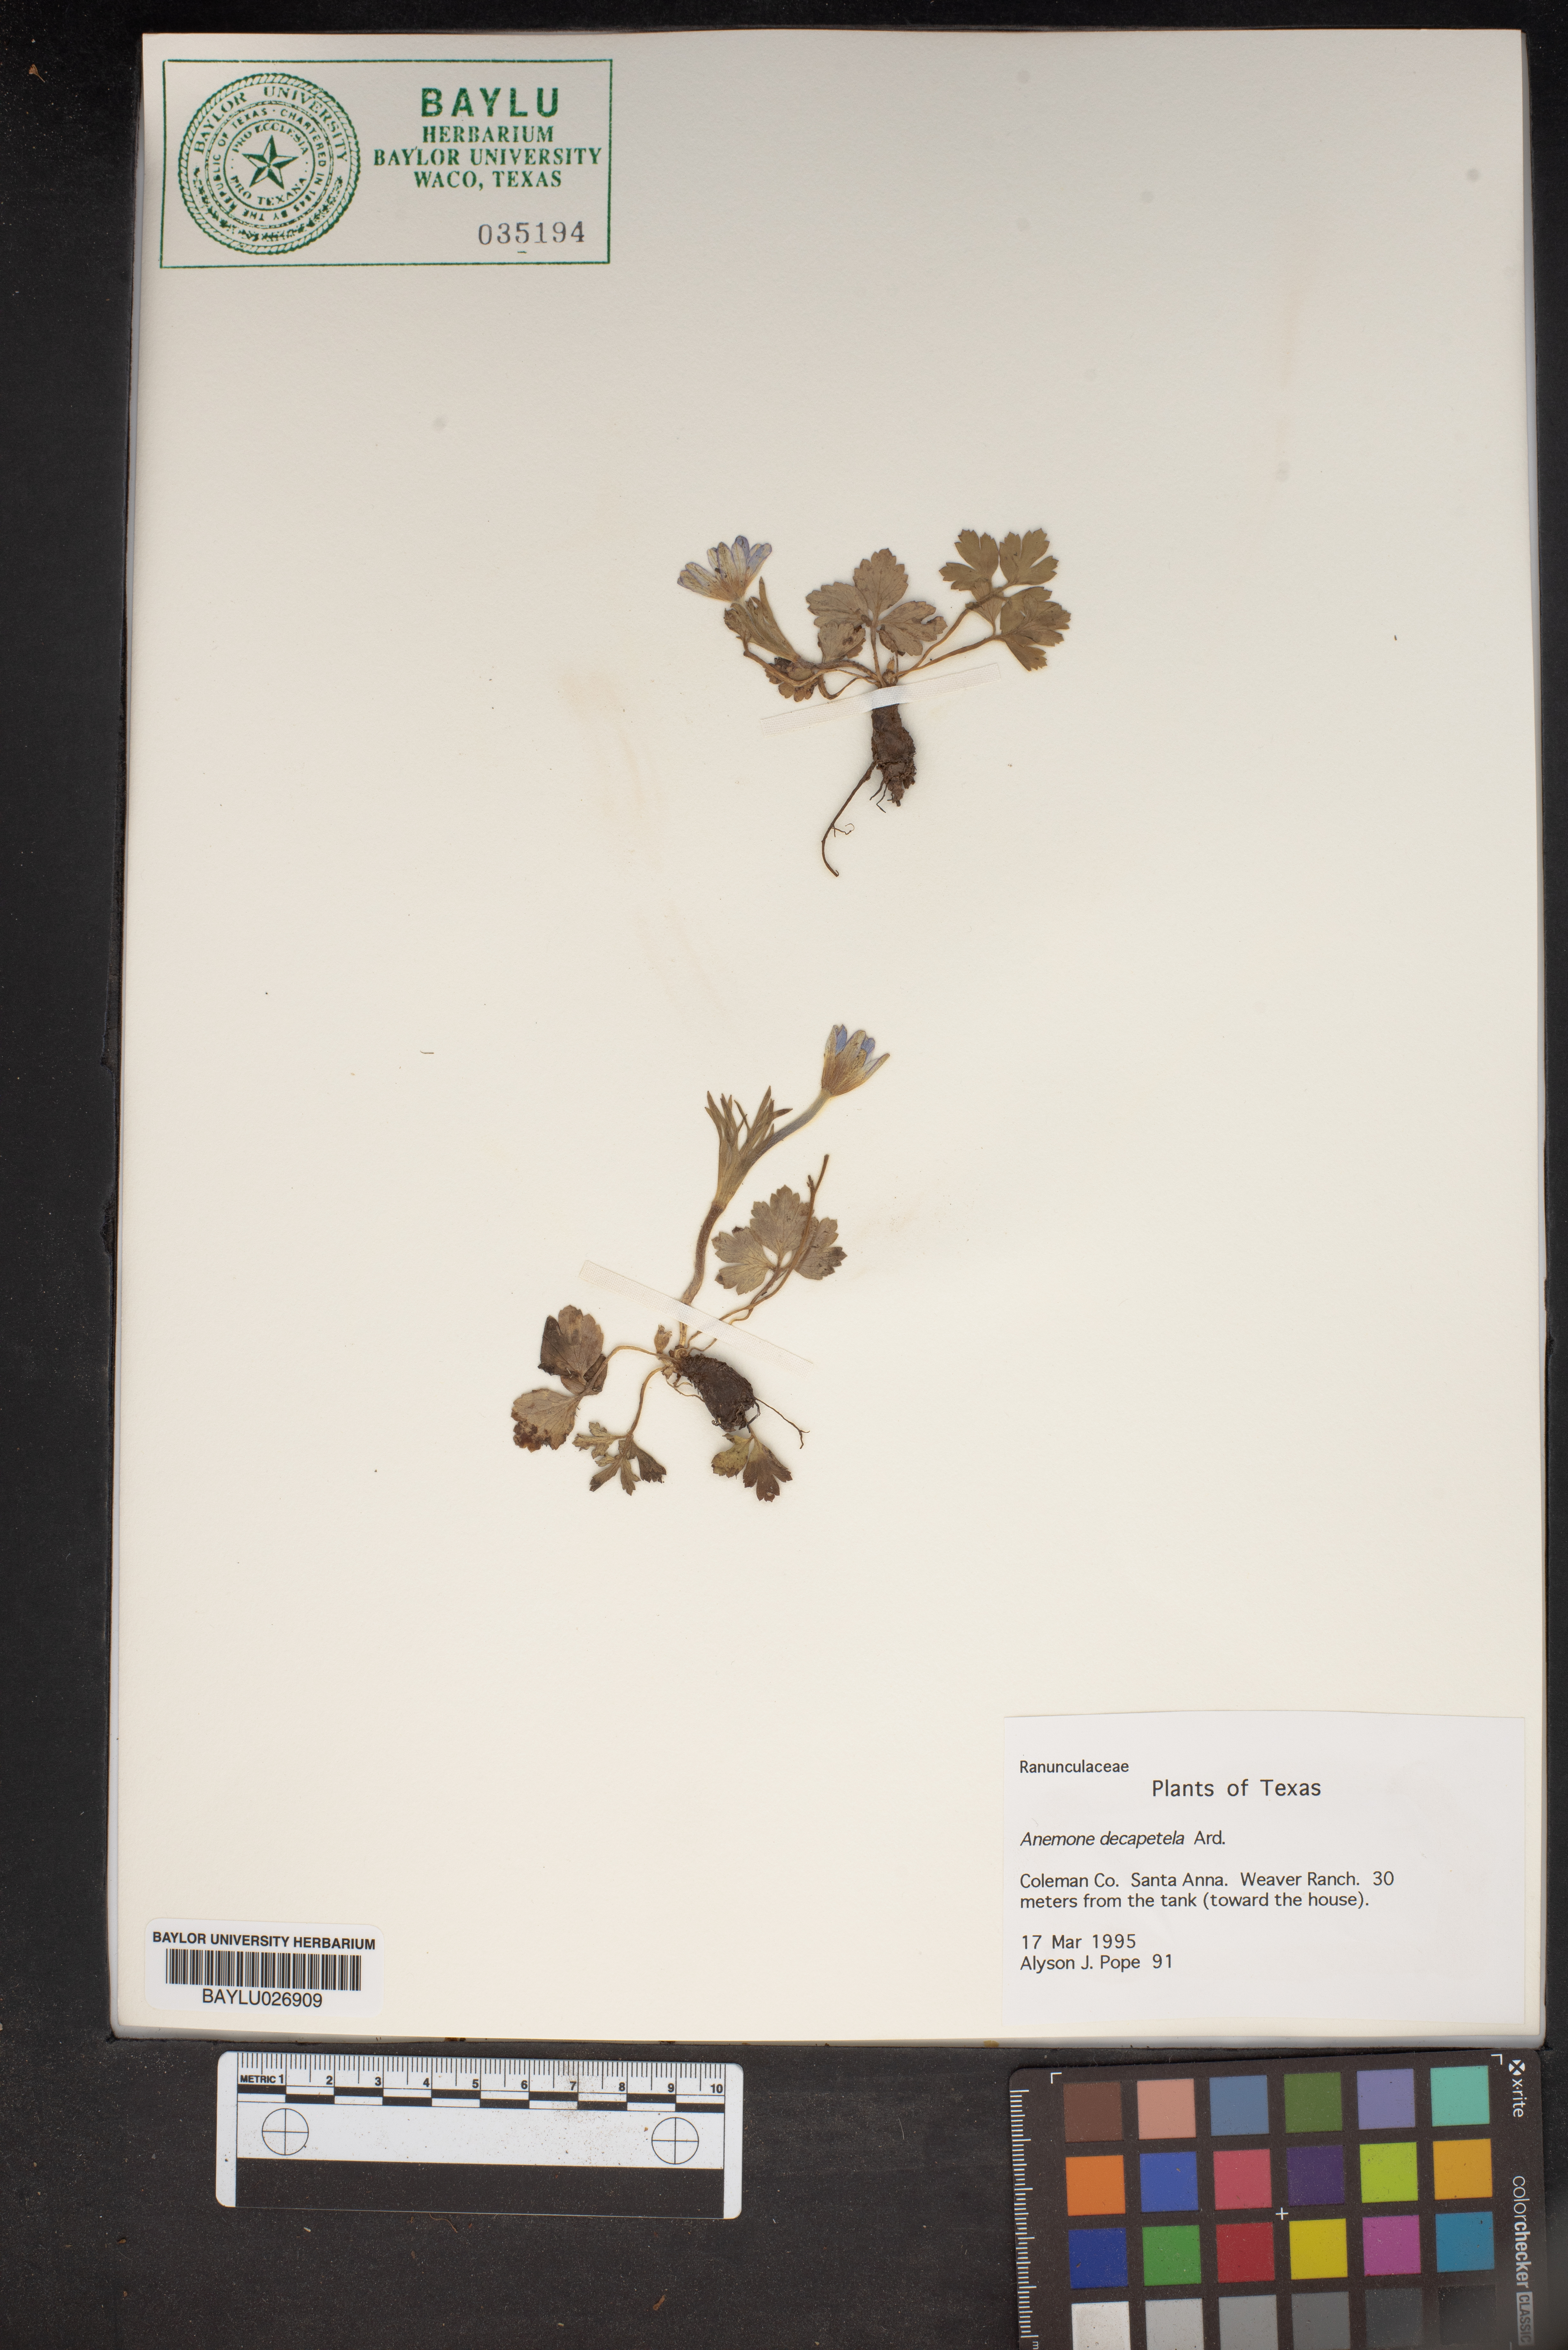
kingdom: Plantae
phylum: Tracheophyta
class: Magnoliopsida
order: Ranunculales
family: Ranunculaceae
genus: Anemone
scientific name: Anemone decapetala
